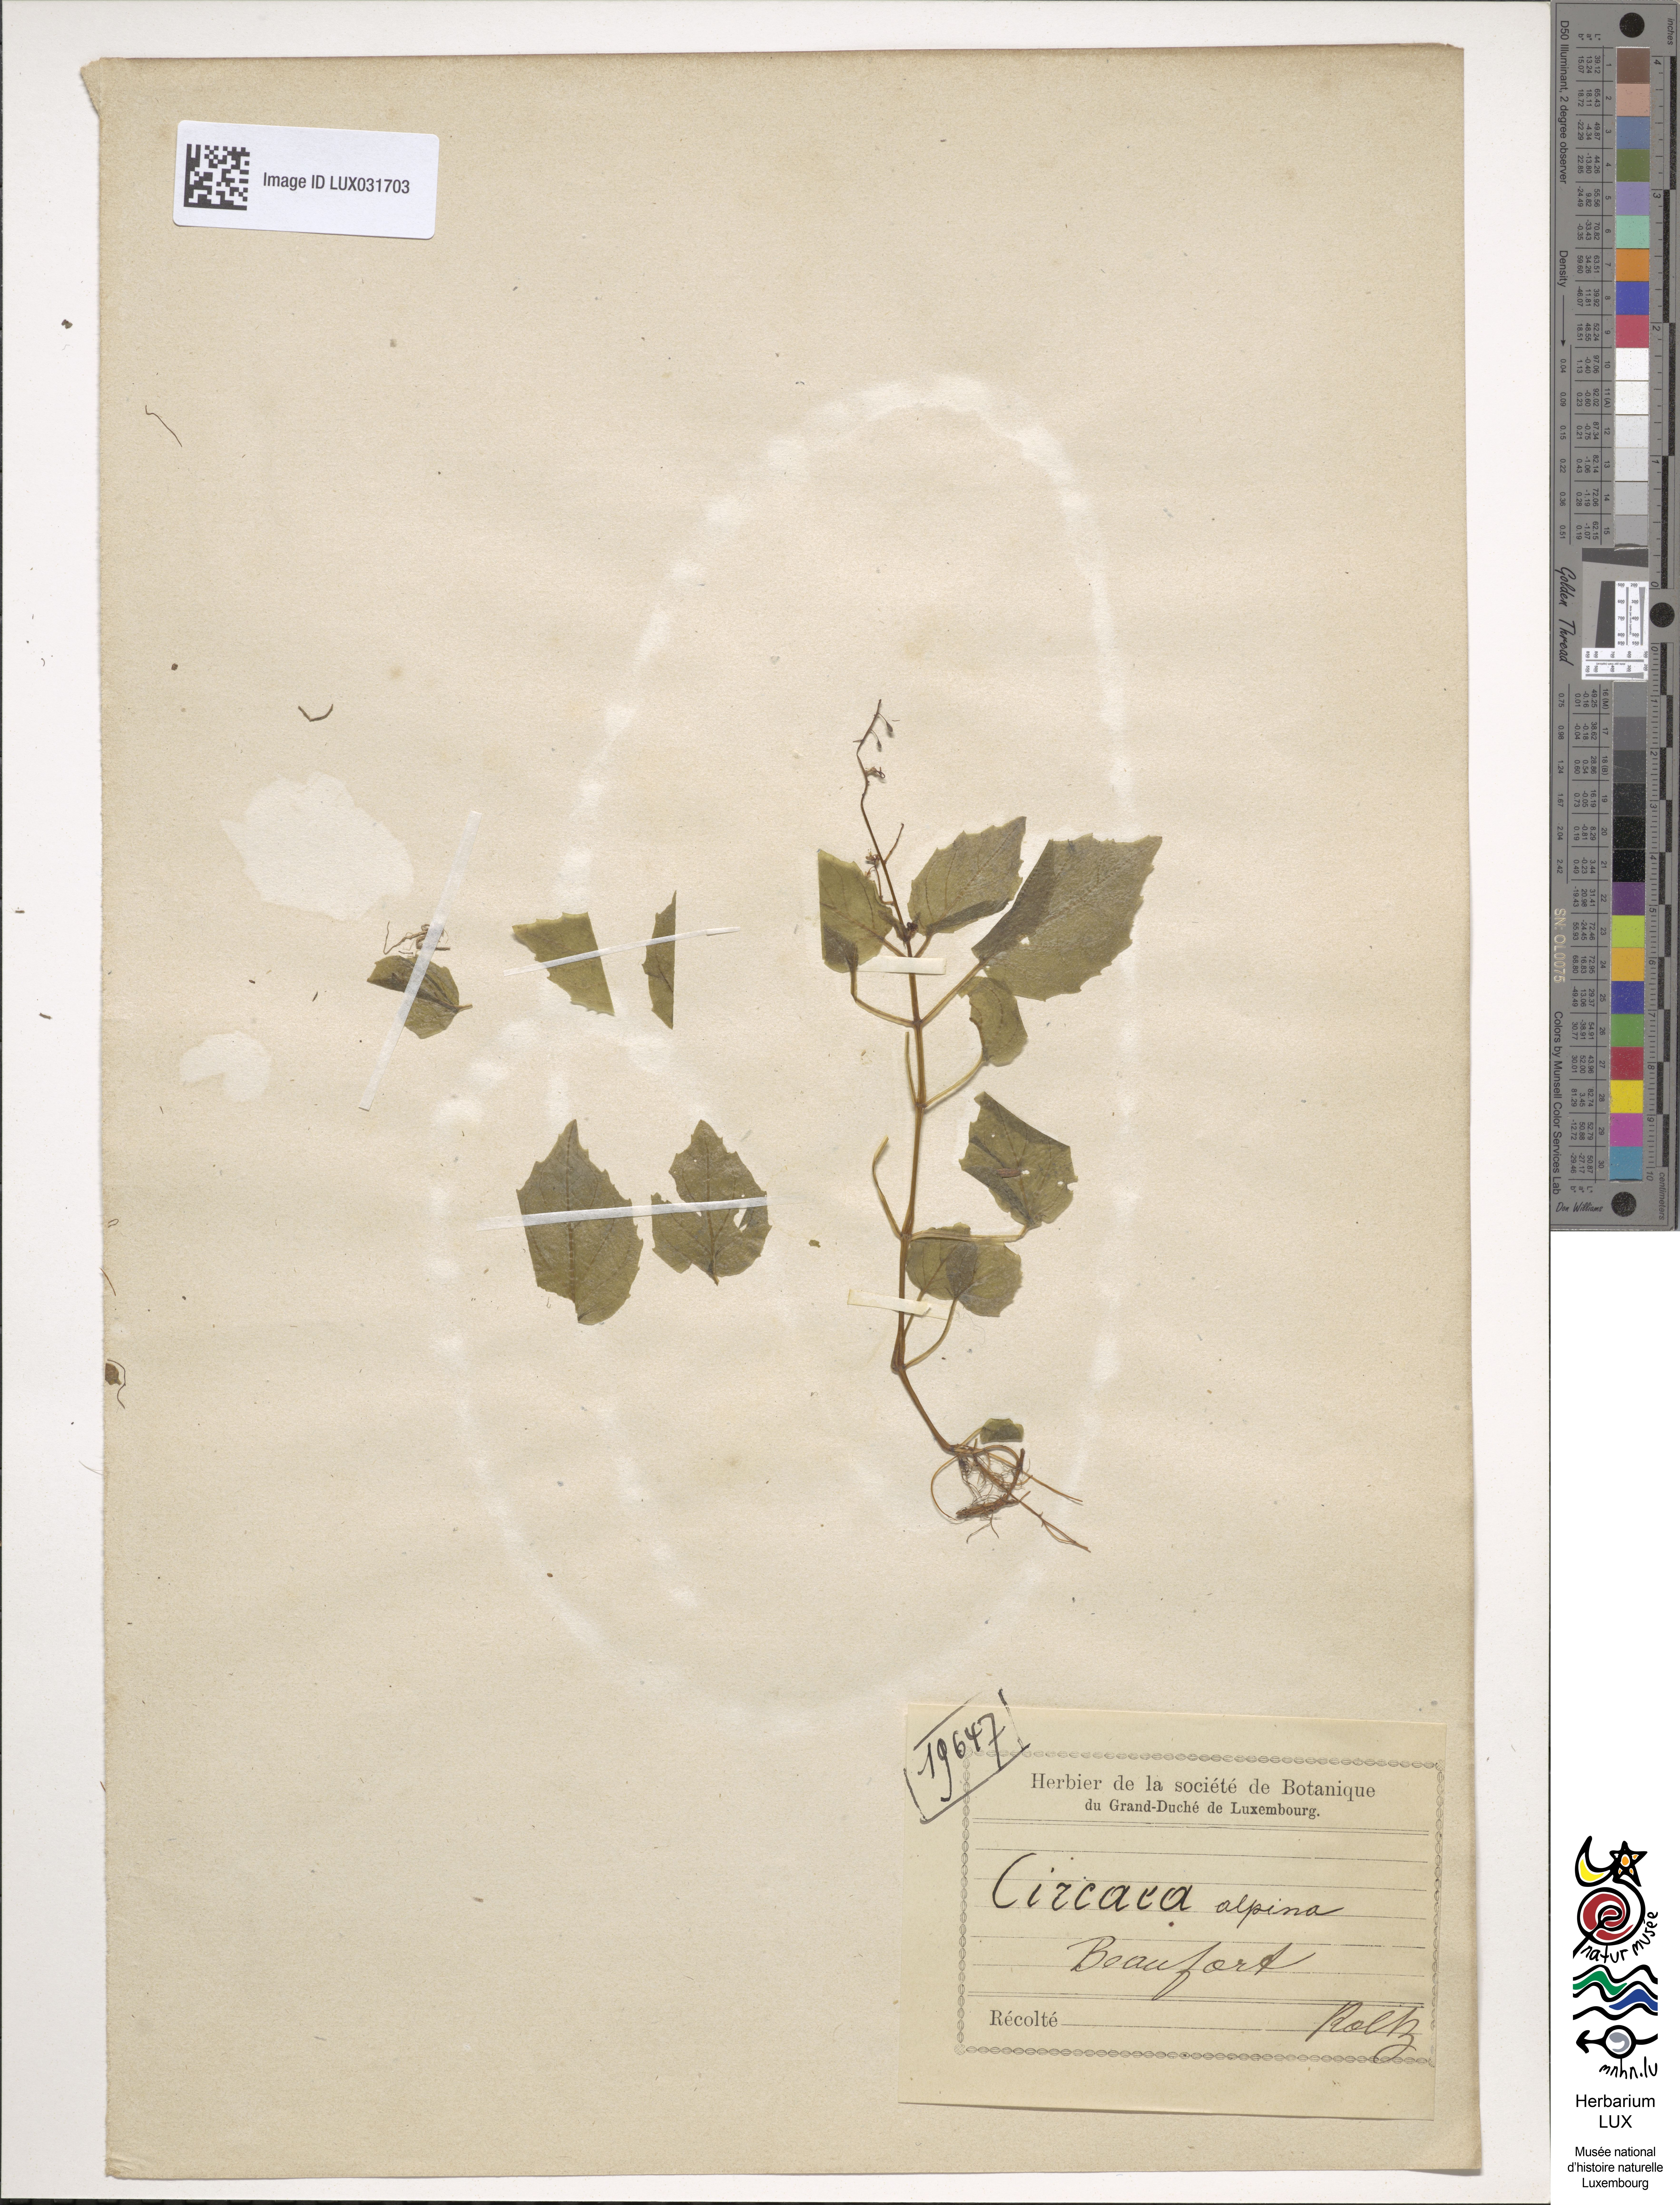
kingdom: Plantae
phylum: Tracheophyta
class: Magnoliopsida
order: Myrtales
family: Onagraceae
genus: Circaea
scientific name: Circaea alpina
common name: Alpine enchanter's-nightshade
